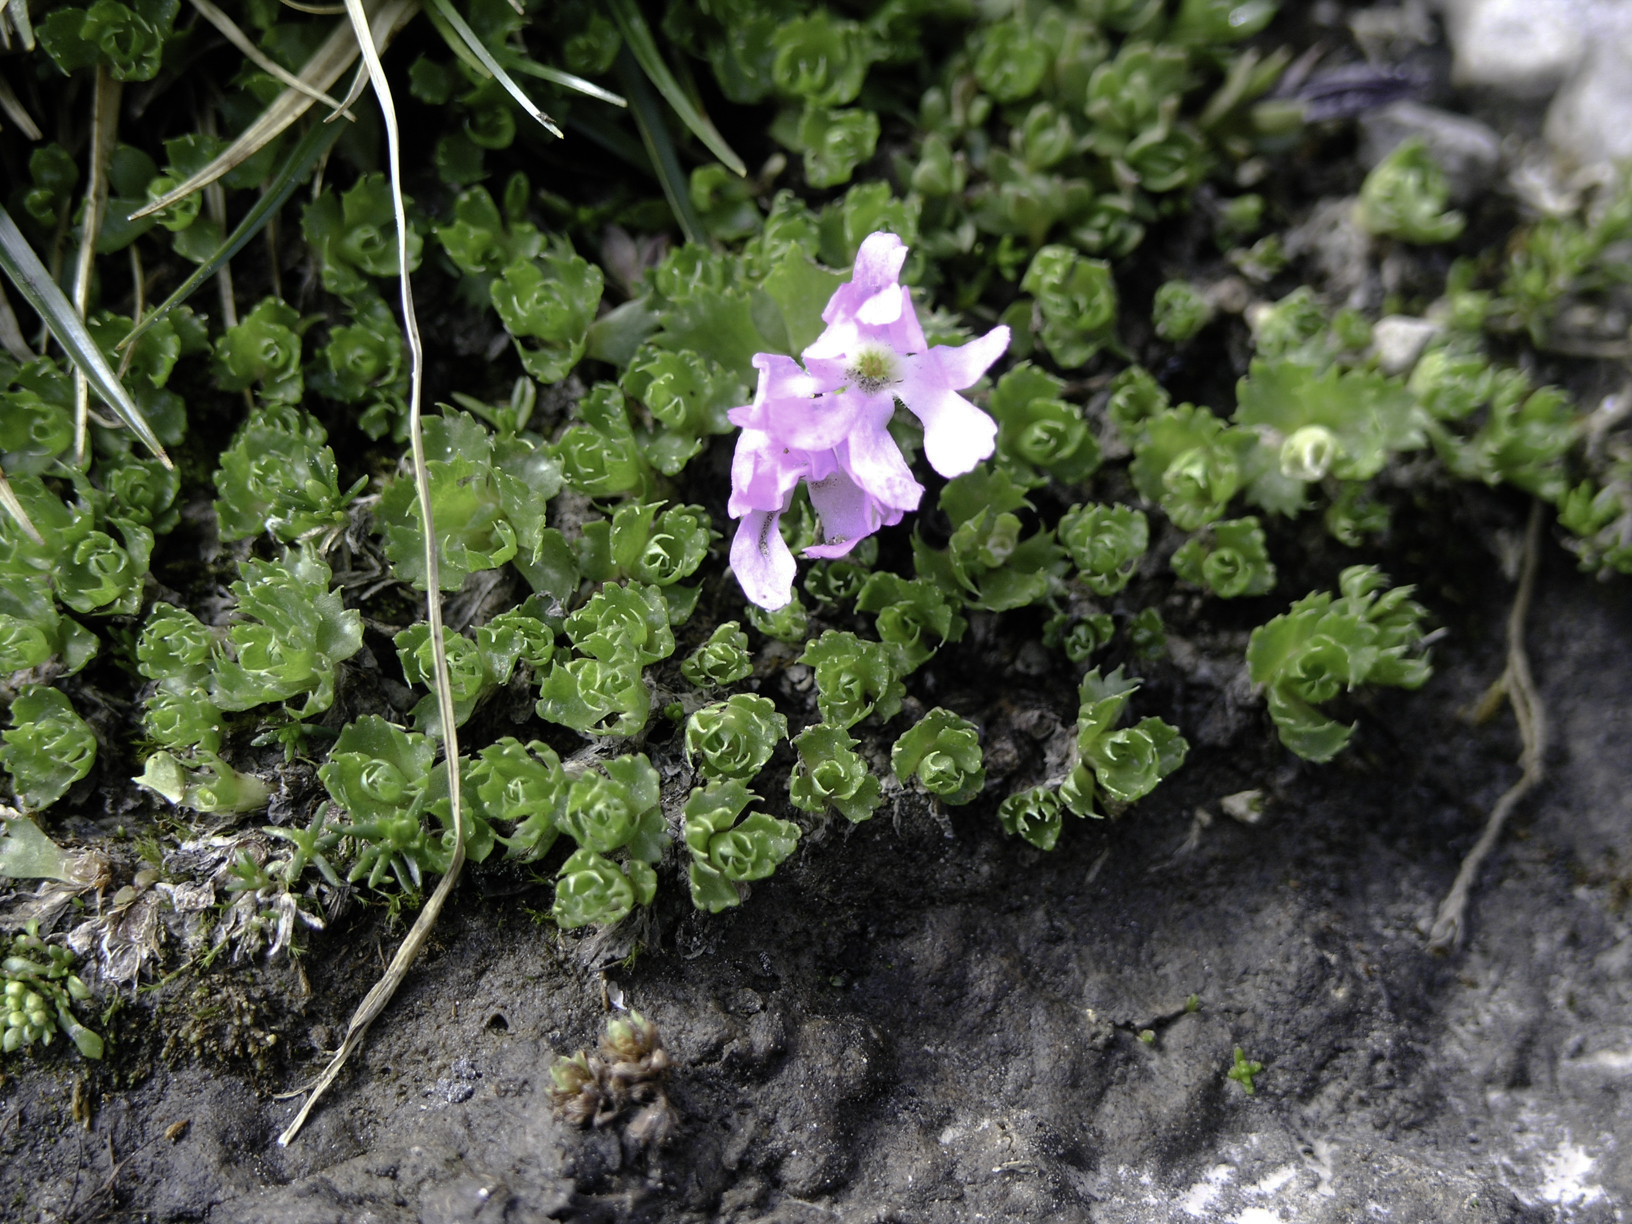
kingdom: Plantae
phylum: Tracheophyta
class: Magnoliopsida
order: Ericales
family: Primulaceae
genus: Primula
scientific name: Primula minima
